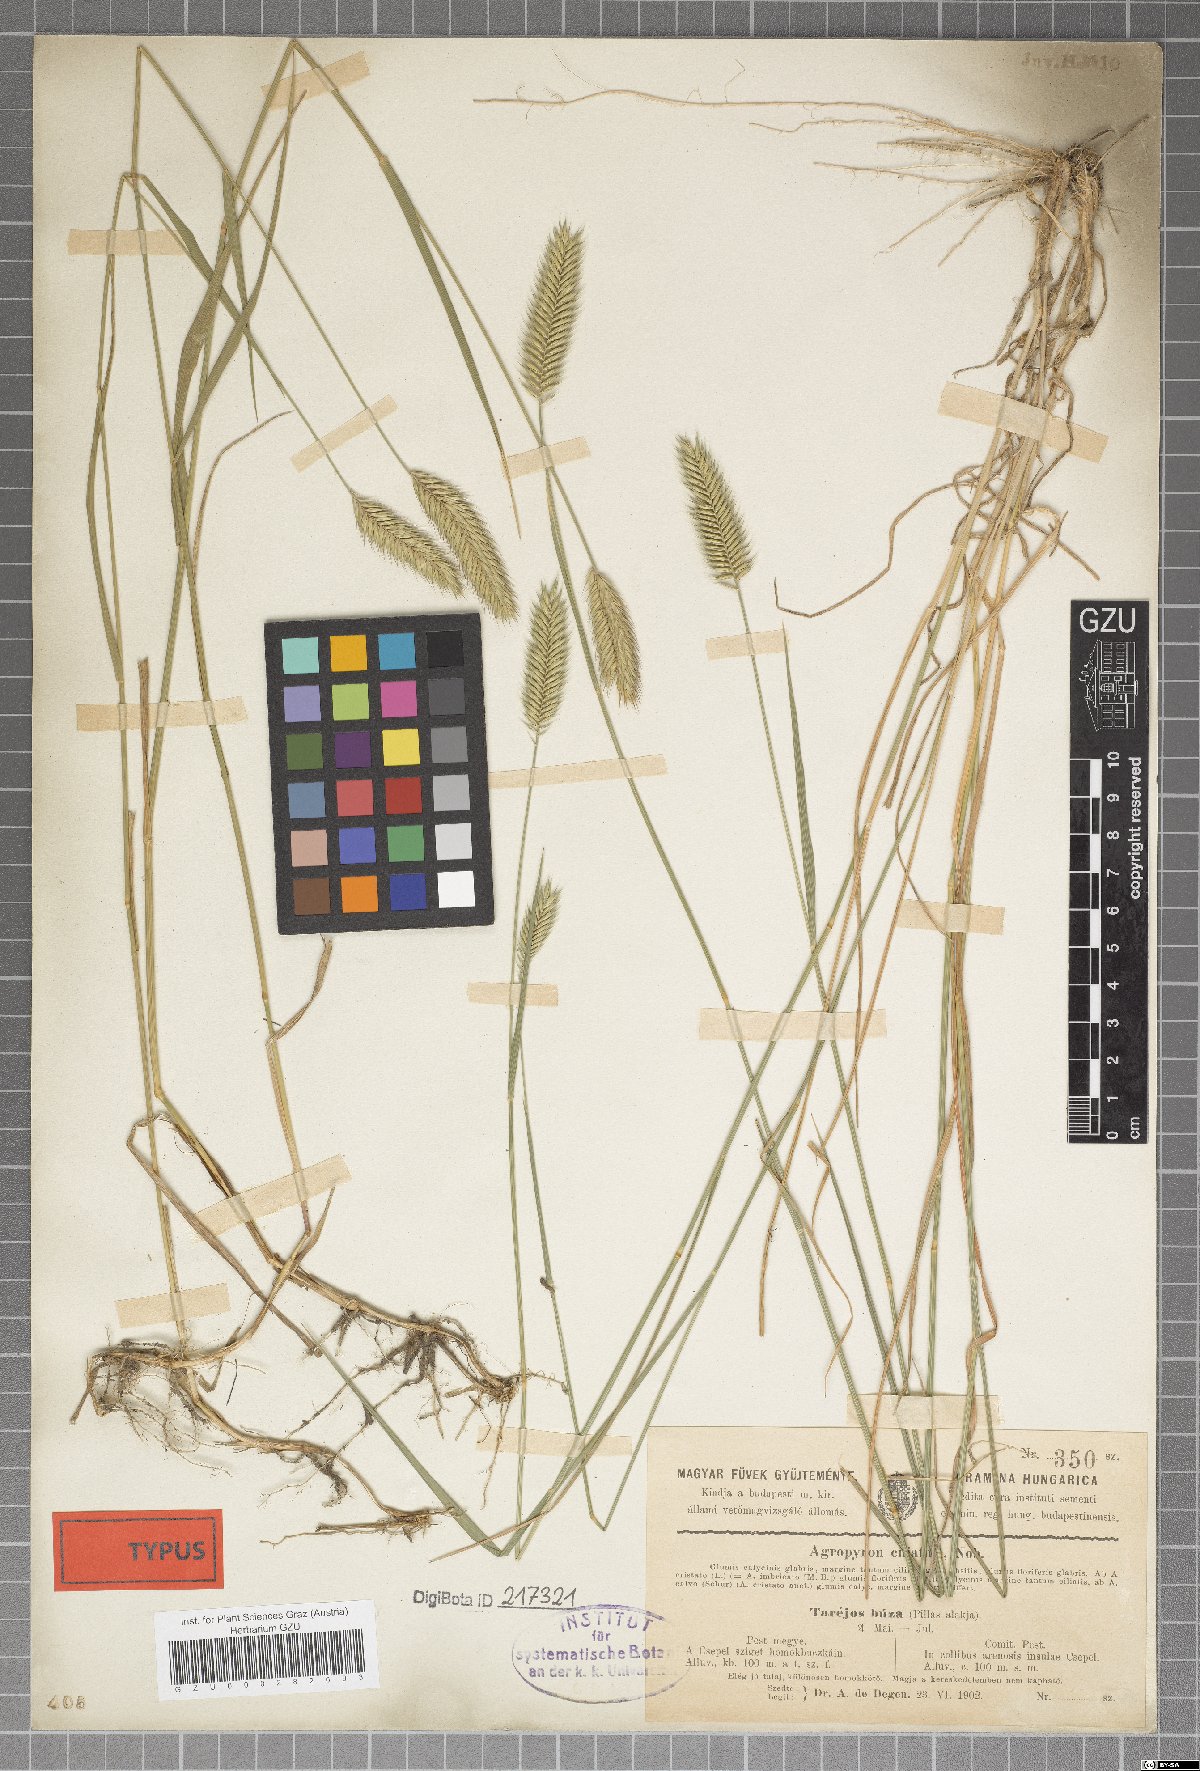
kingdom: Plantae
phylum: Tracheophyta
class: Liliopsida
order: Poales
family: Poaceae
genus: Elymus
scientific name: Elymus lolioides
